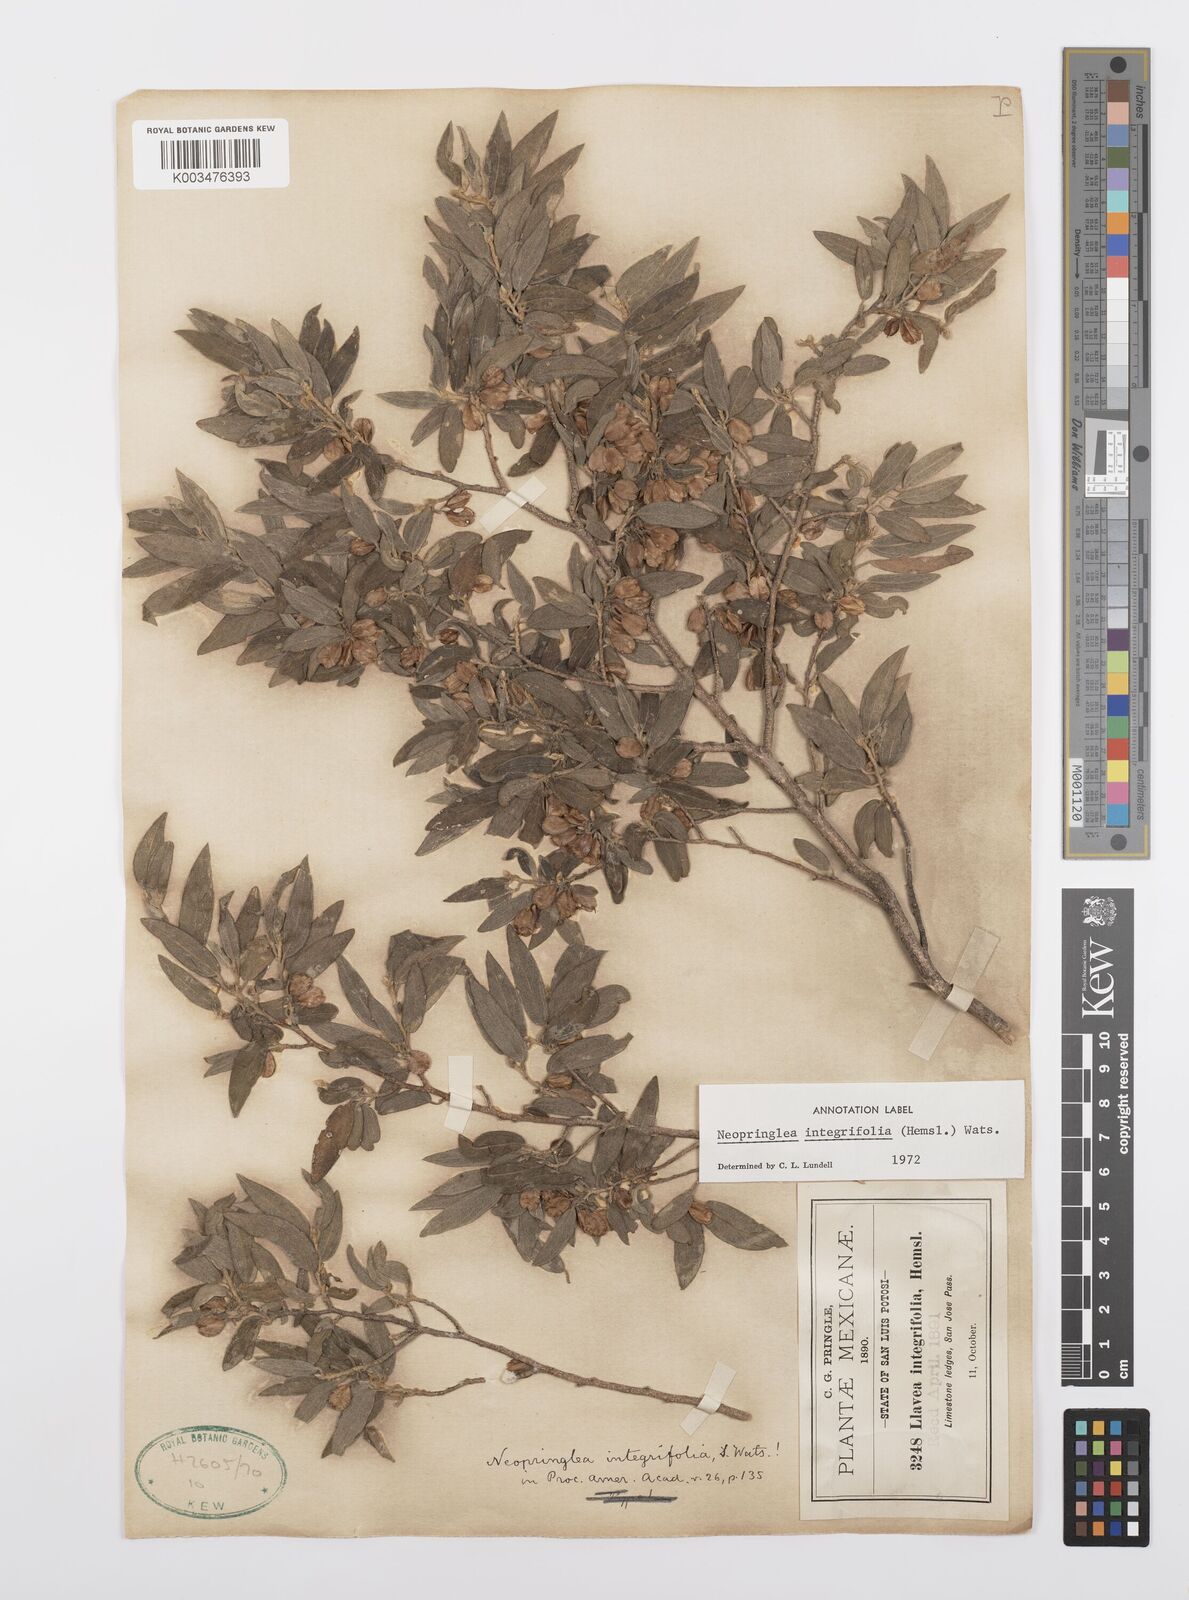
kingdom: Plantae
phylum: Tracheophyta
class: Magnoliopsida
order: Malpighiales
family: Salicaceae
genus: Neopringlea
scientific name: Neopringlea integrifolia
